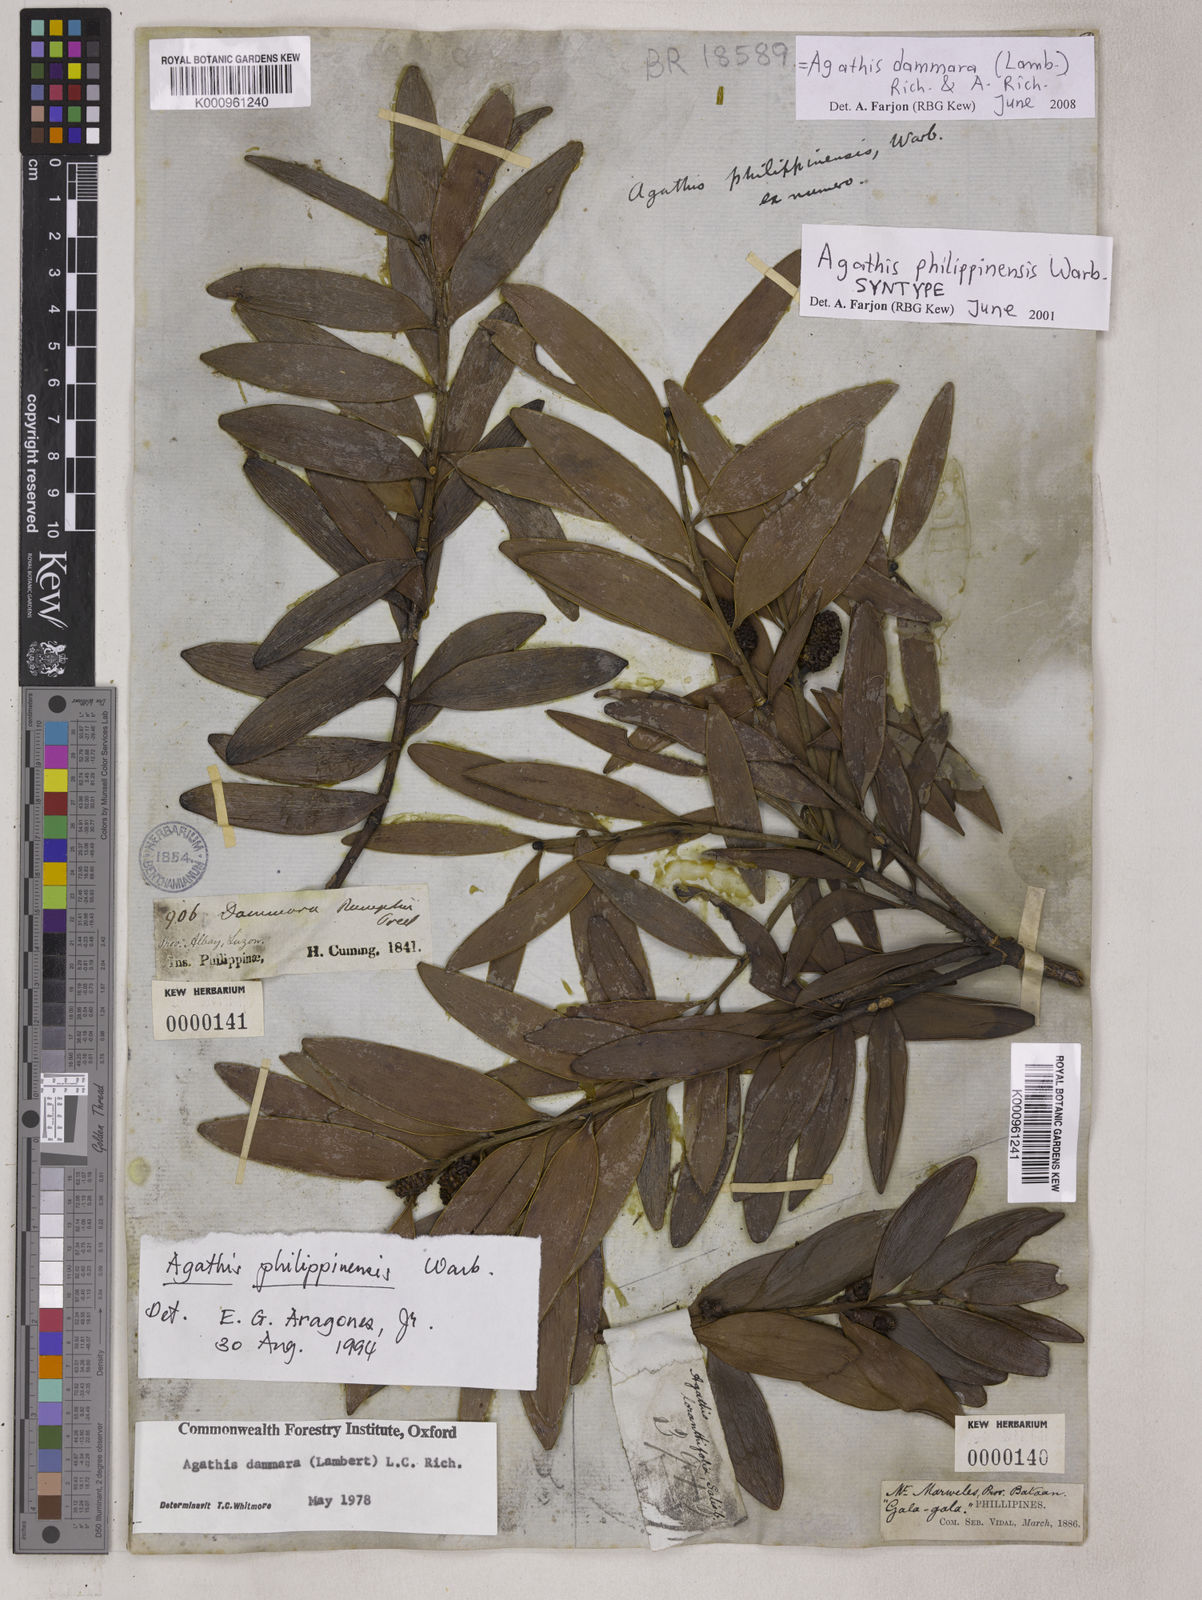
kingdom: Plantae
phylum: Tracheophyta
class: Pinopsida
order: Pinales
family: Araucariaceae
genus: Agathis
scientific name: Agathis
